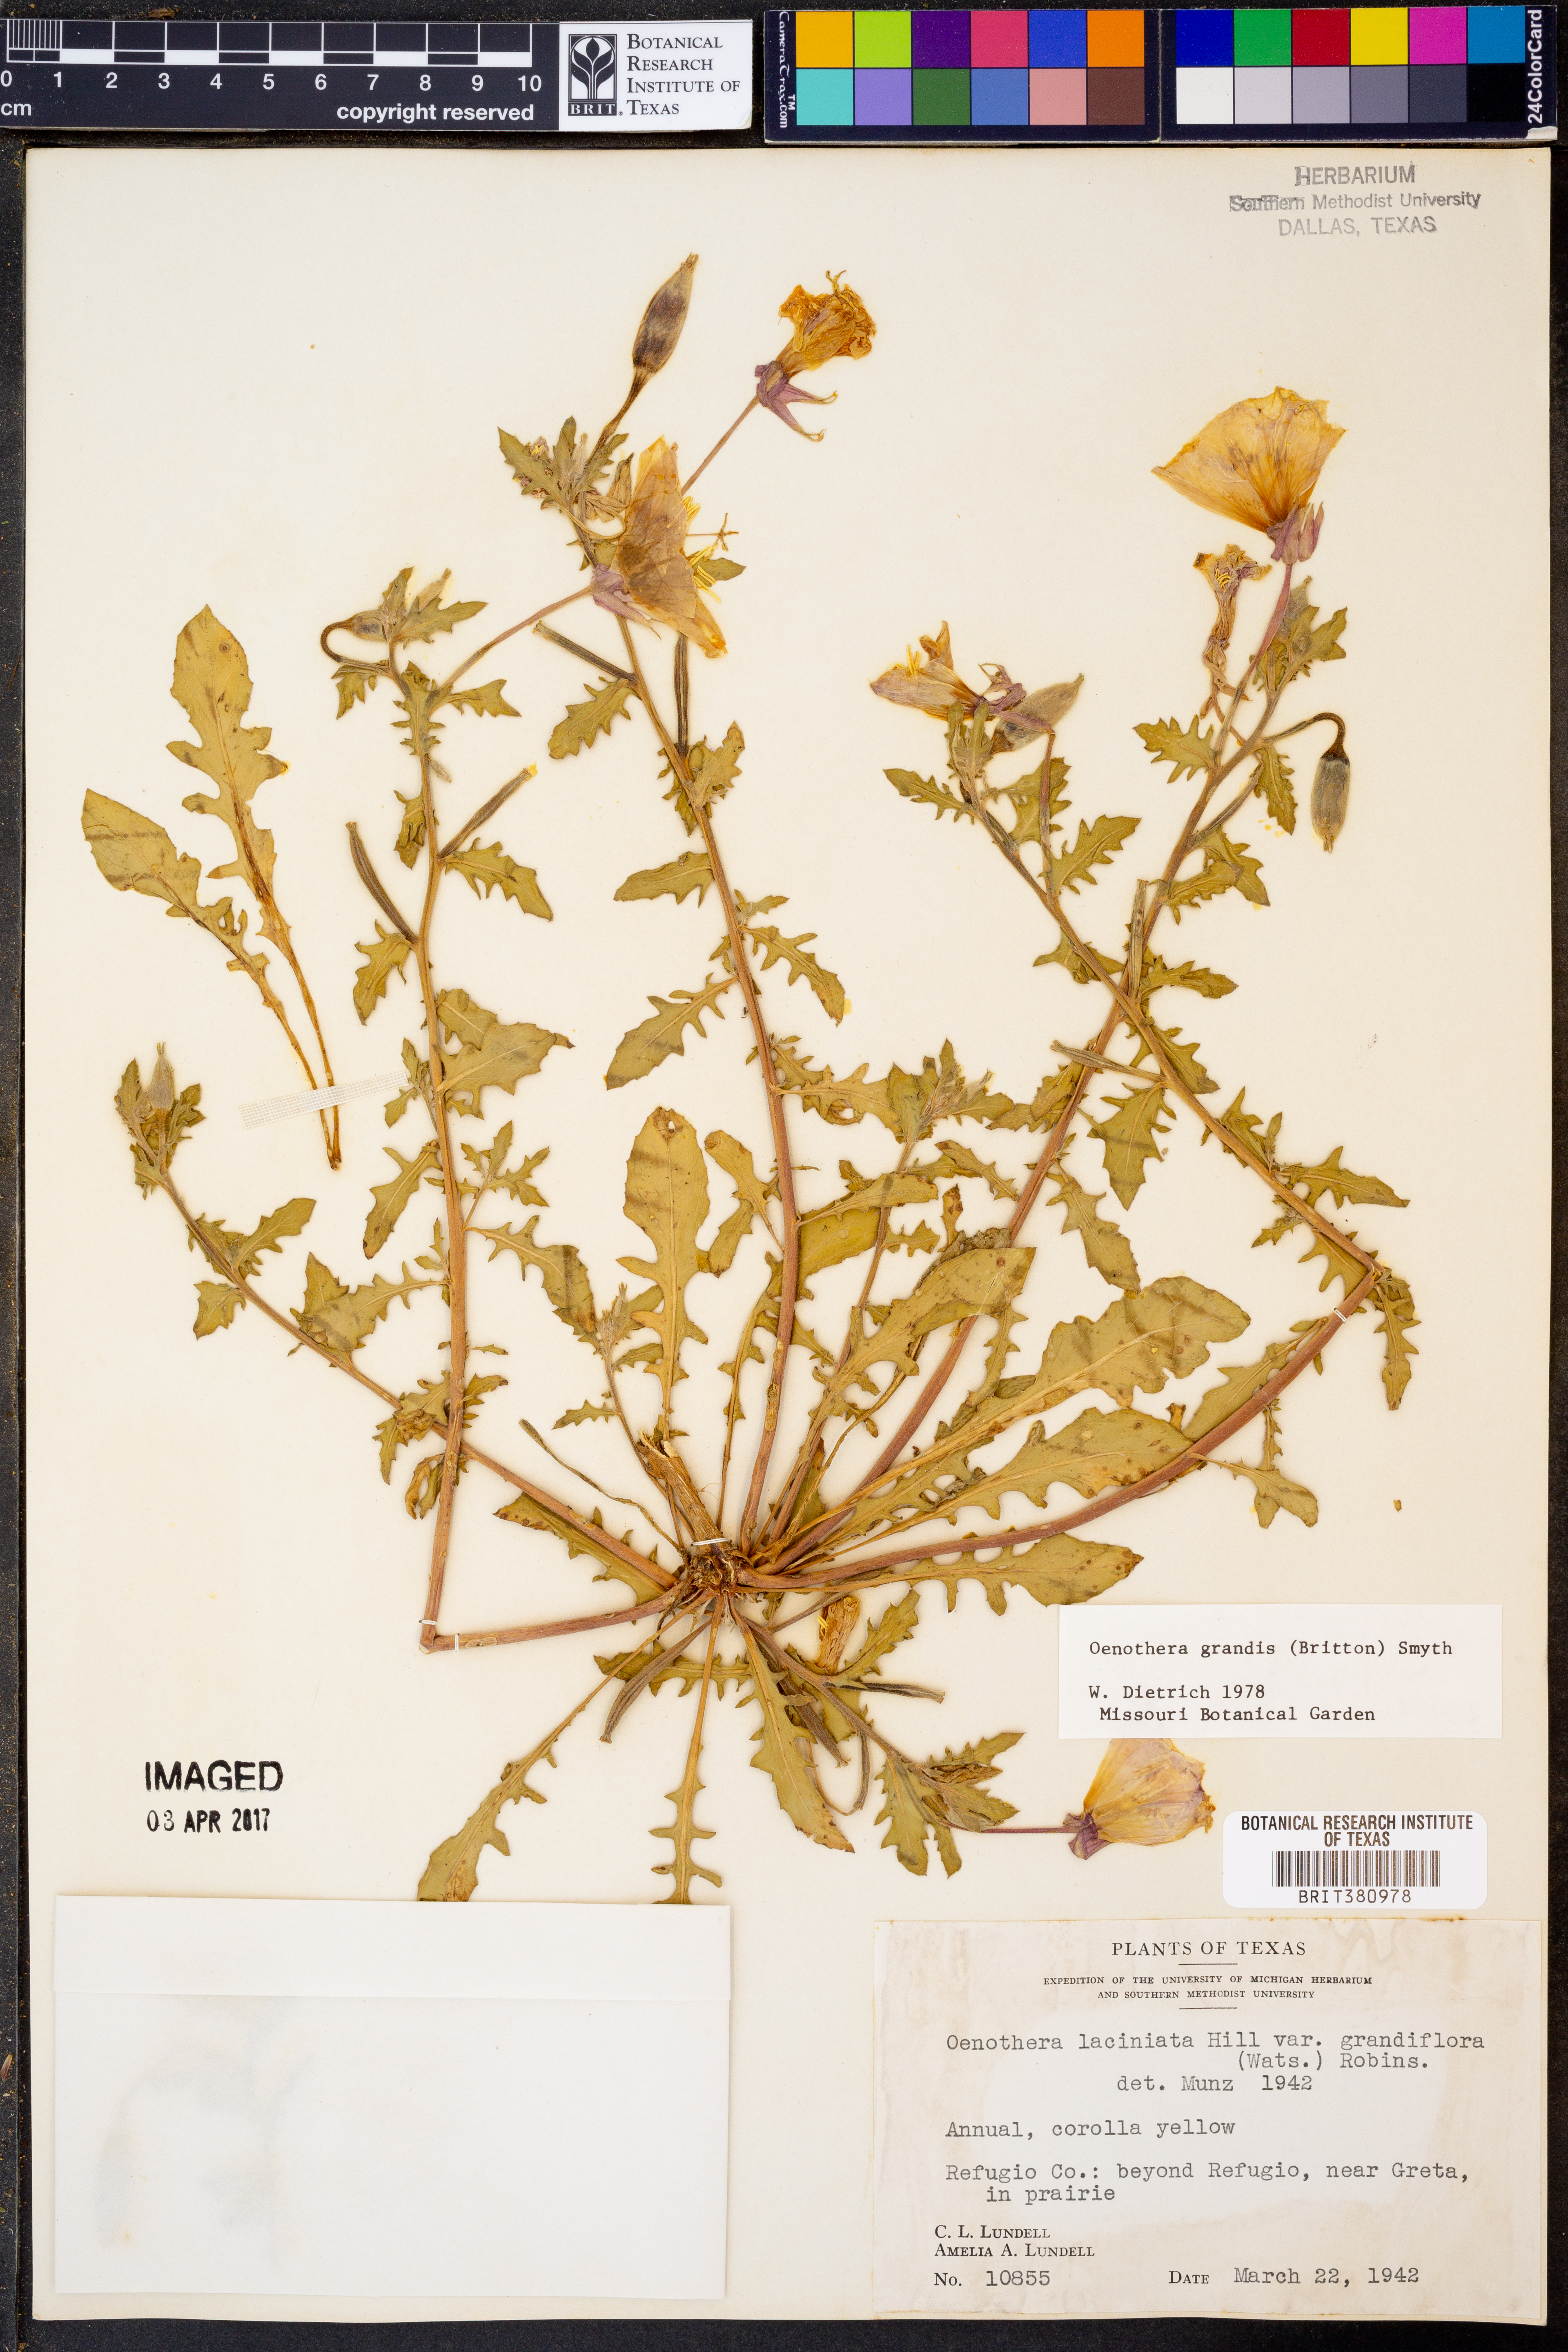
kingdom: Plantae
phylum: Tracheophyta
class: Magnoliopsida
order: Myrtales
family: Onagraceae
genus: Oenothera
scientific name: Oenothera grandis
